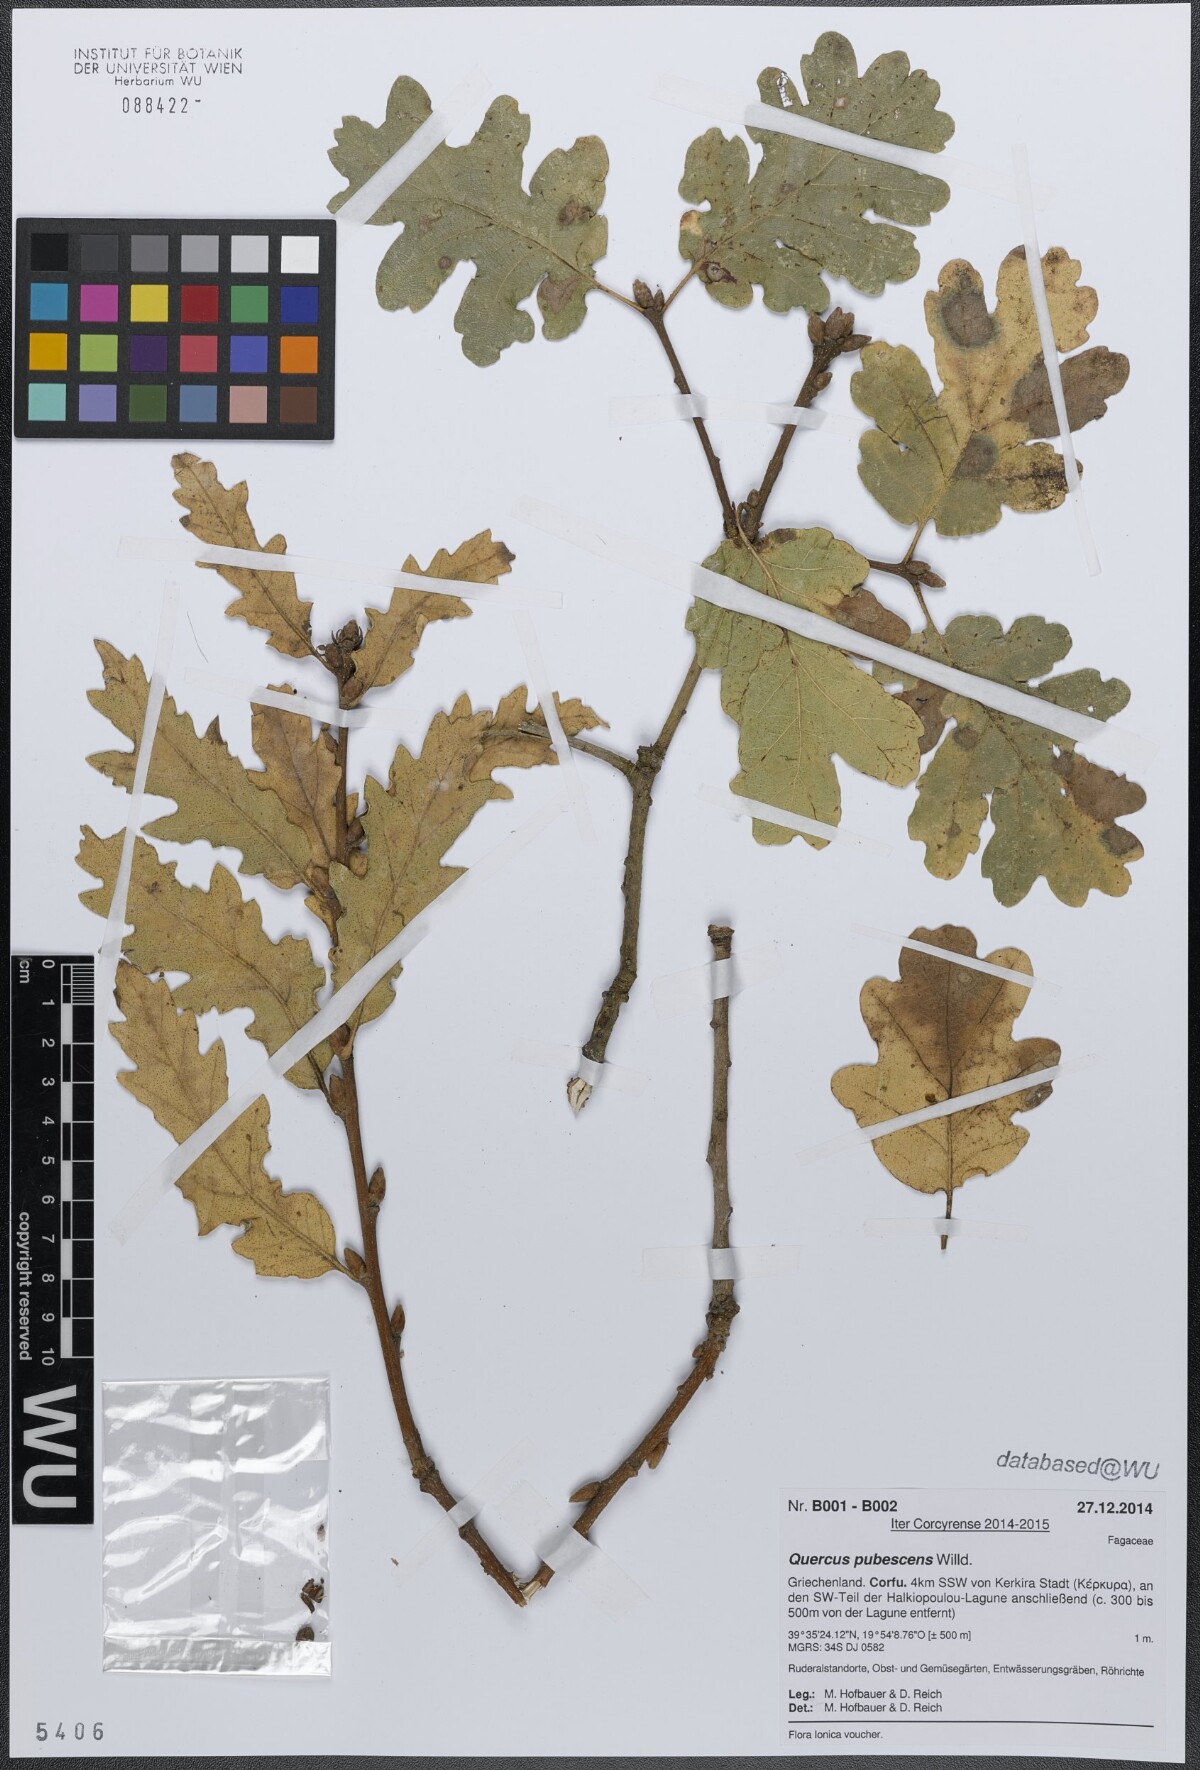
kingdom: Plantae
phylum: Tracheophyta
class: Magnoliopsida
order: Fagales
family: Fagaceae
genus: Quercus
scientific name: Quercus pubescens
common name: Downy oak
